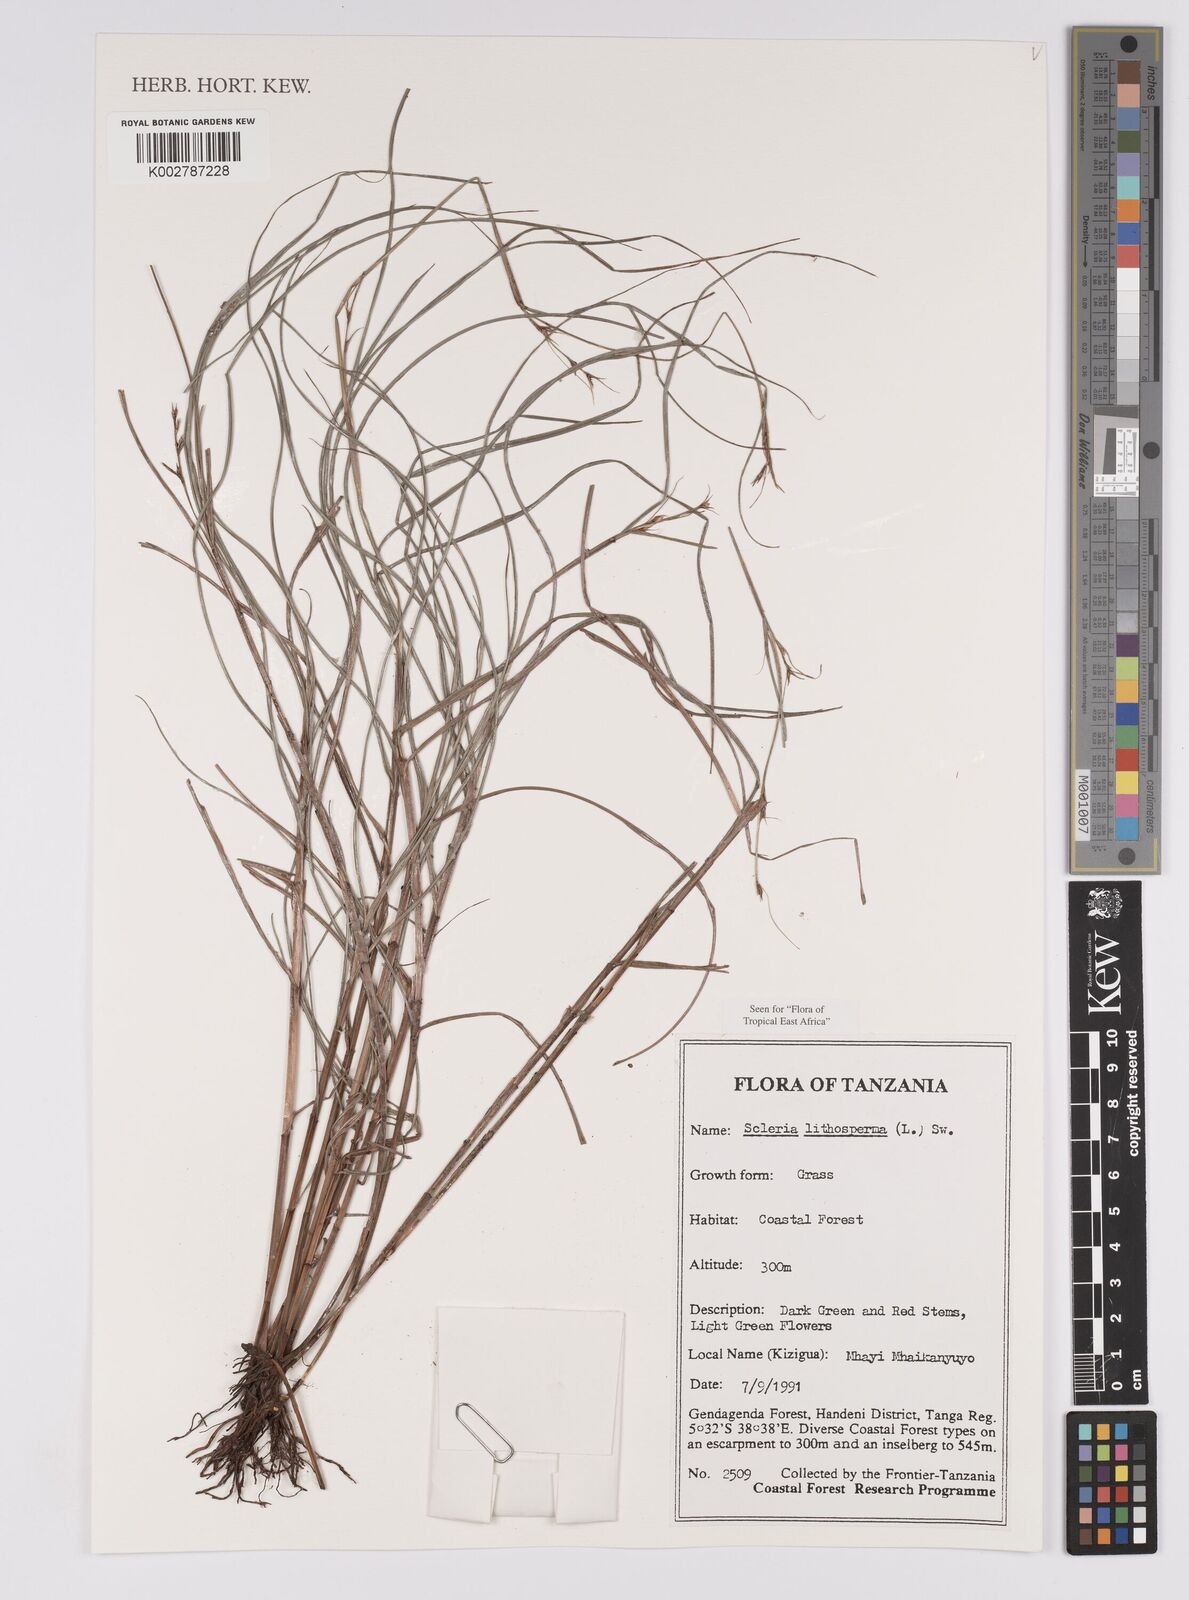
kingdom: Plantae
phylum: Tracheophyta
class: Liliopsida
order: Poales
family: Cyperaceae
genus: Scleria
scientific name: Scleria lithosperma
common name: Florida keys nut-rush
